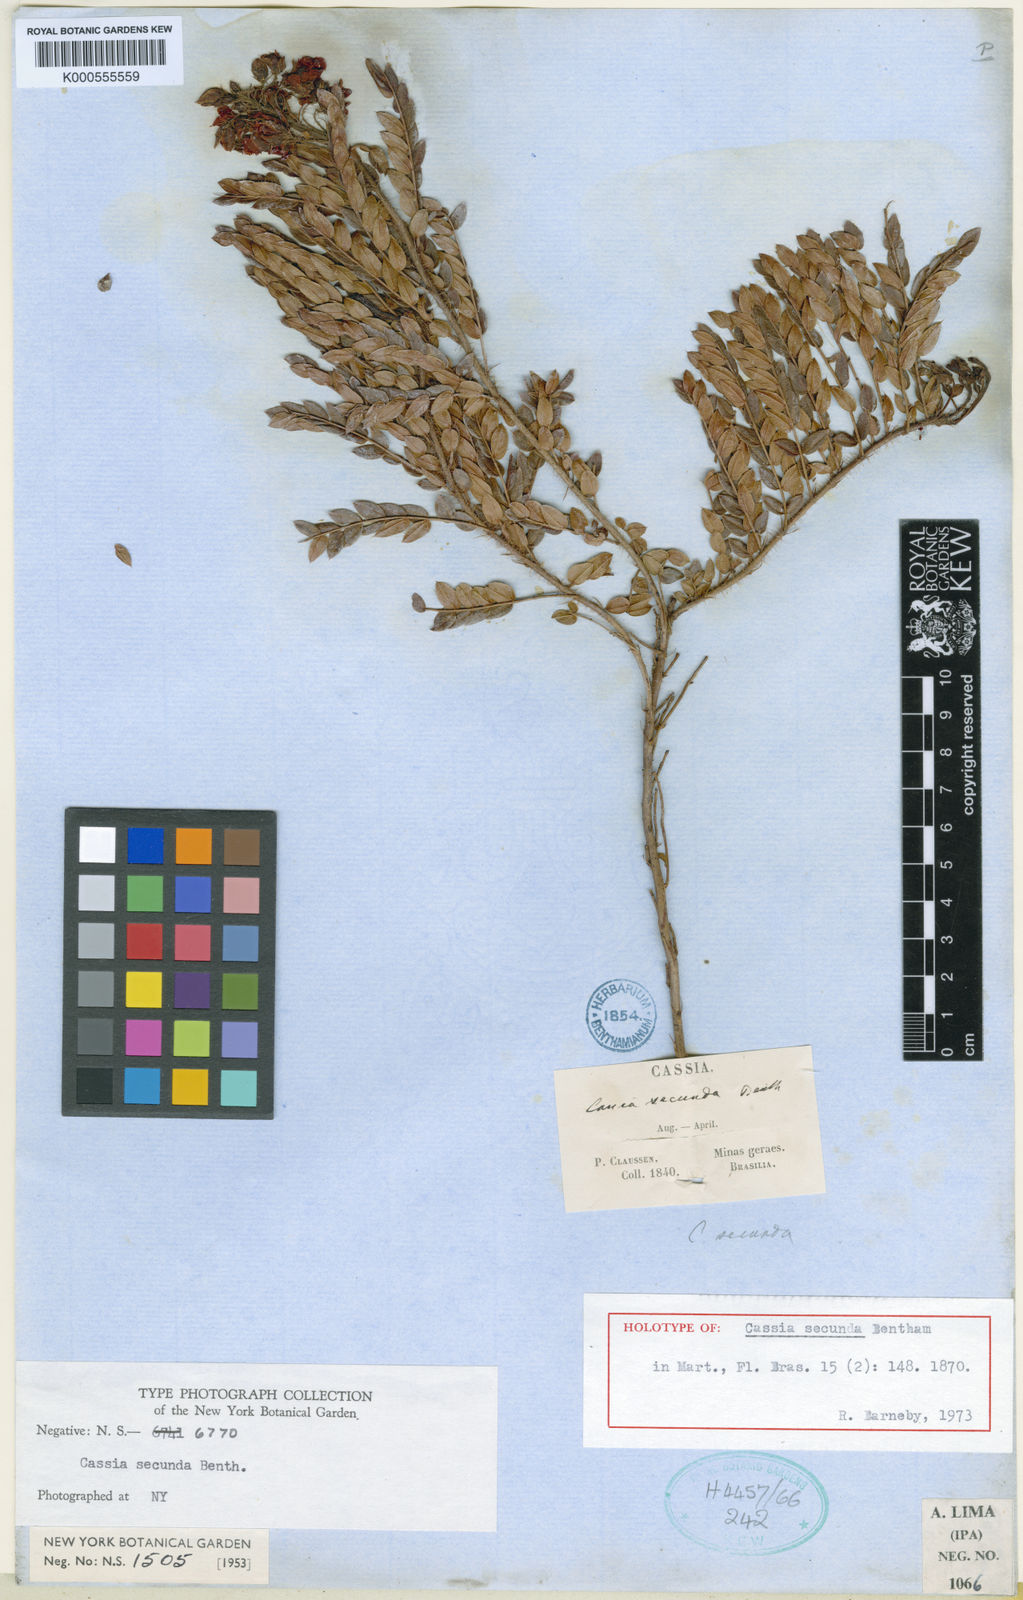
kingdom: Plantae
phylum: Tracheophyta
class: Magnoliopsida
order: Fabales
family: Fabaceae
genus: Chamaecrista
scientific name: Chamaecrista secunda
